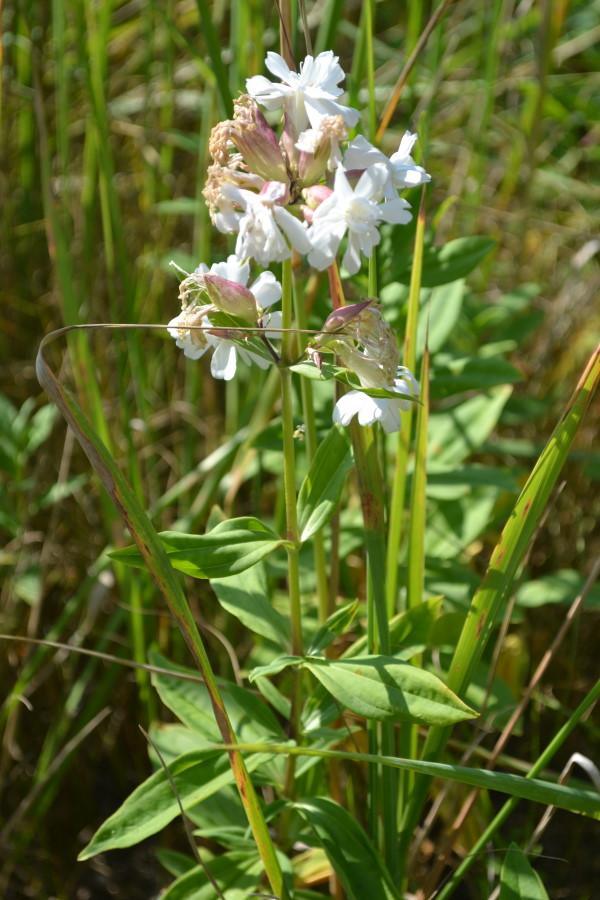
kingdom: Plantae
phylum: Tracheophyta
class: Magnoliopsida
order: Caryophyllales
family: Caryophyllaceae
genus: Saponaria
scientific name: Saponaria officinalis
